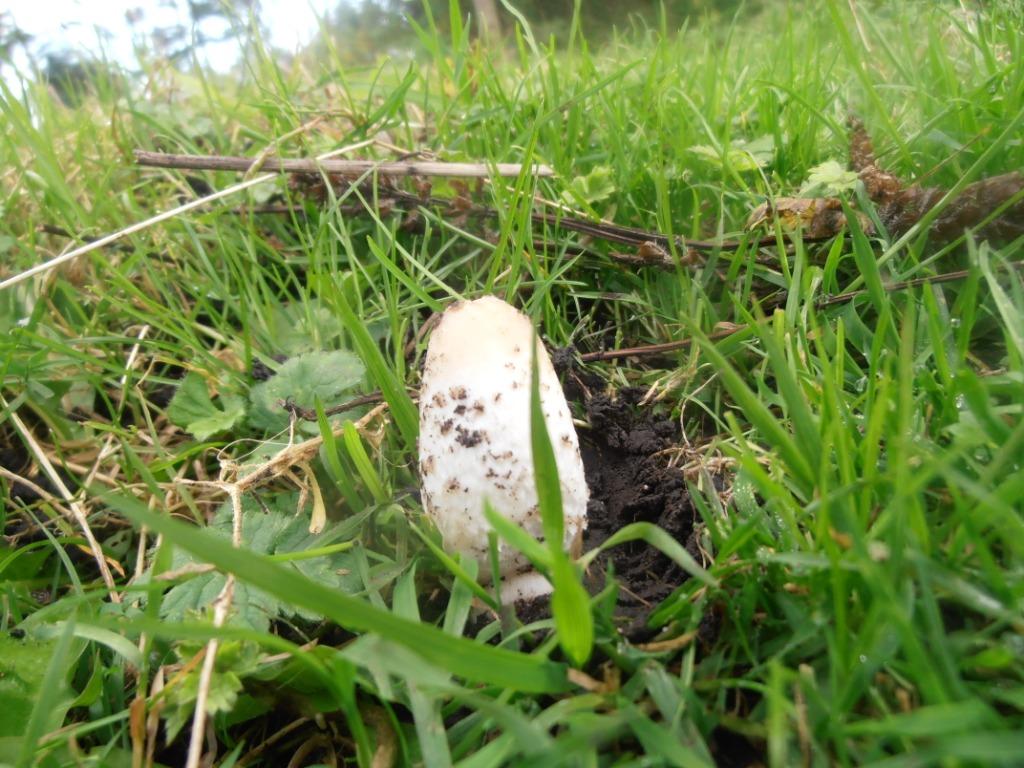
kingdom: Fungi
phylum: Basidiomycota
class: Agaricomycetes
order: Agaricales
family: Agaricaceae
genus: Coprinus
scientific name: Coprinus comatus
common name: stor parykhat
